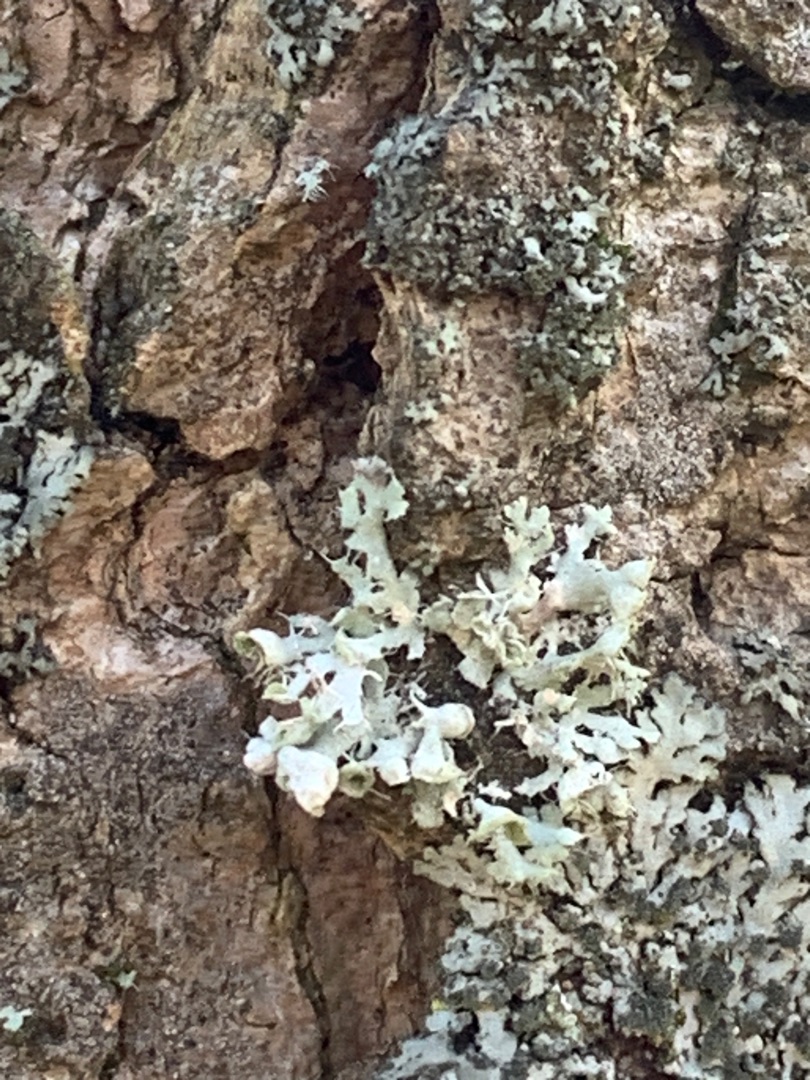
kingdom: Fungi
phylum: Ascomycota
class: Lecanoromycetes
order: Caliciales
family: Physciaceae
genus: Physcia
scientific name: Physcia adscendens
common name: Hætte-rosetlav
